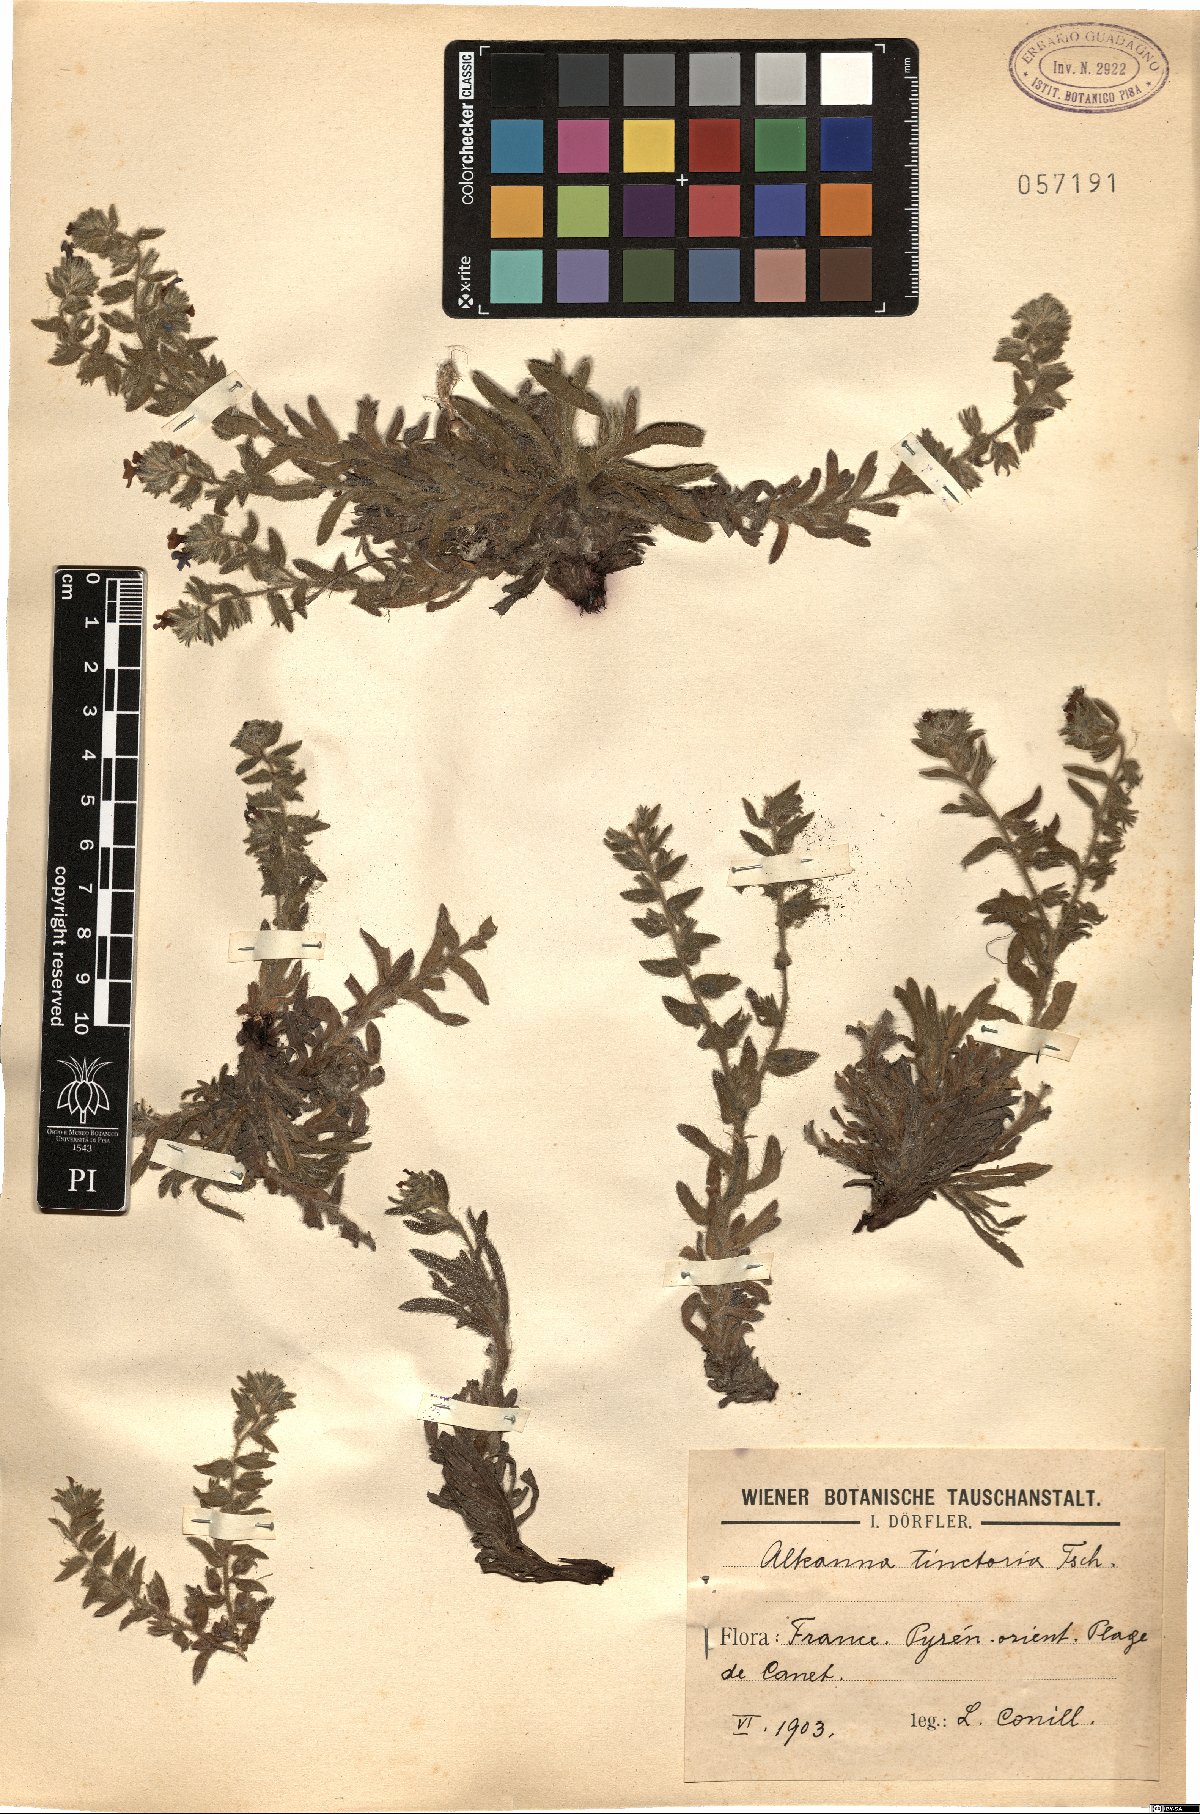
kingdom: Plantae
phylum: Tracheophyta
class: Magnoliopsida
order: Boraginales
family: Boraginaceae
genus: Alkanna
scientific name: Alkanna tinctoria
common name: Dyer's-alkanet
